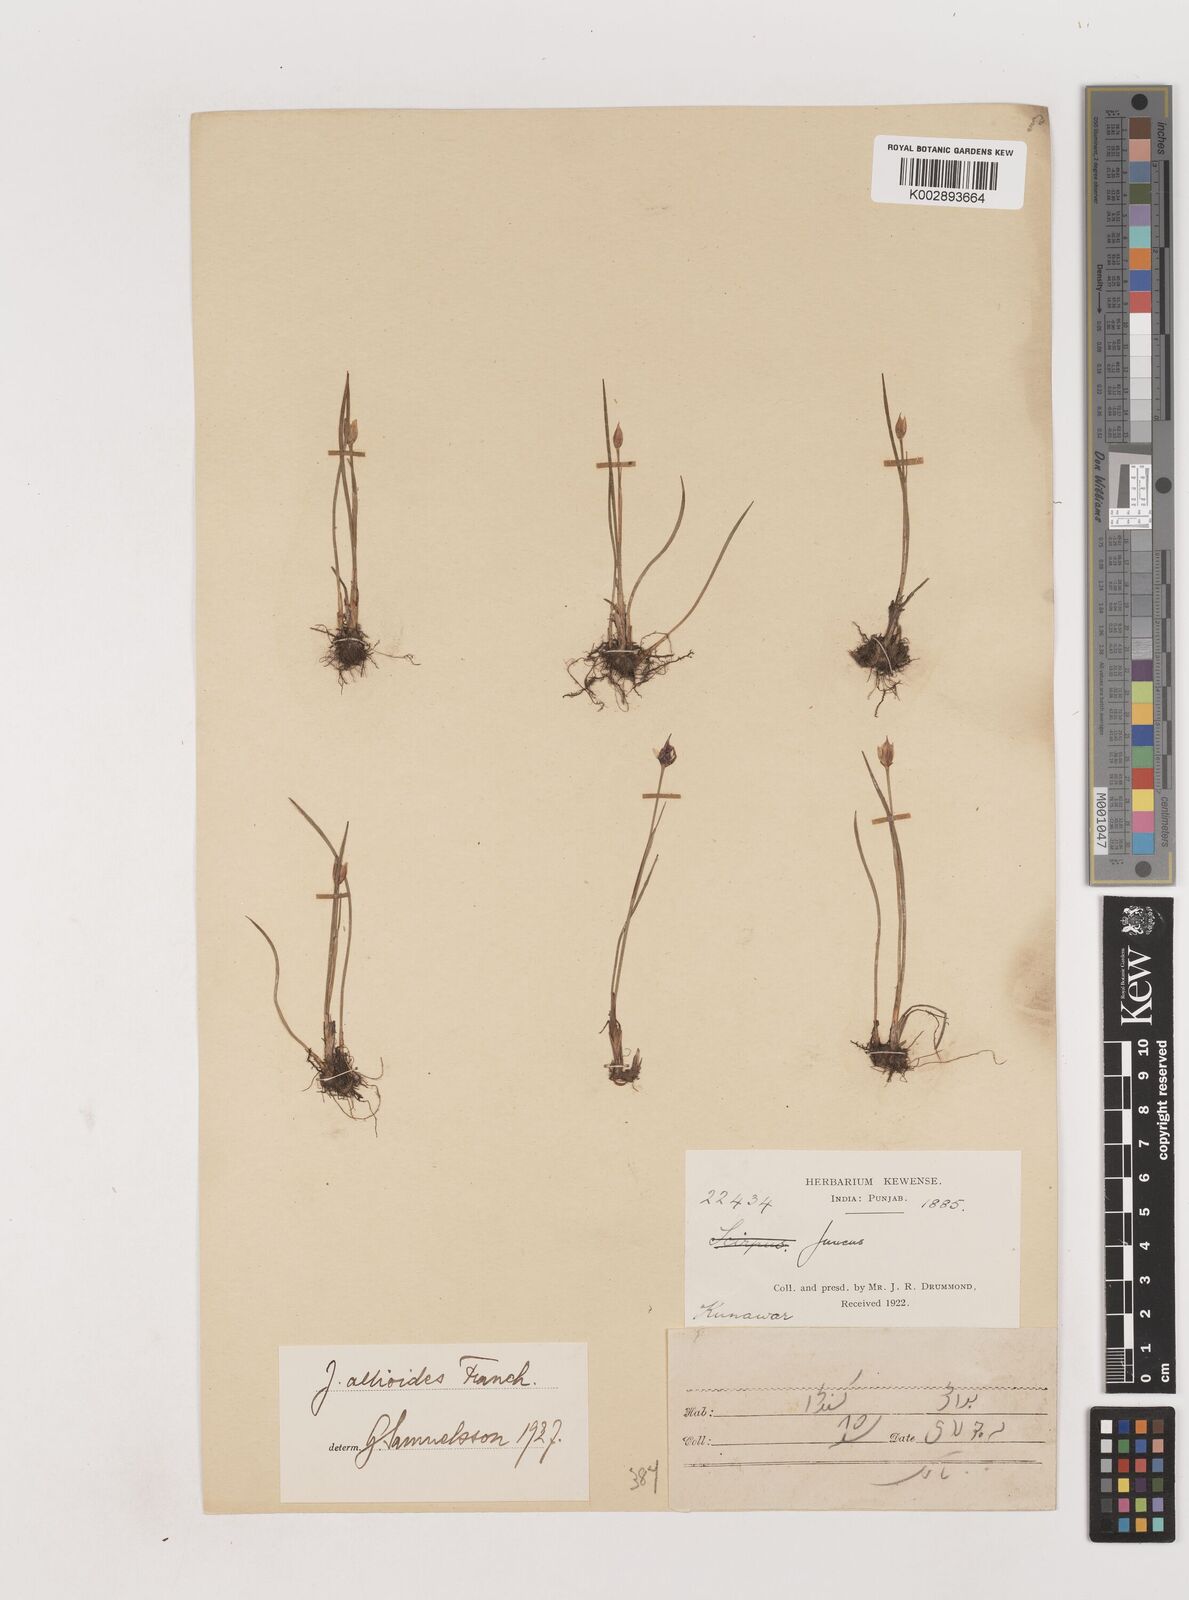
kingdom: Plantae
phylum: Tracheophyta
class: Liliopsida
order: Poales
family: Juncaceae
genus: Juncus
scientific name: Juncus allioides
